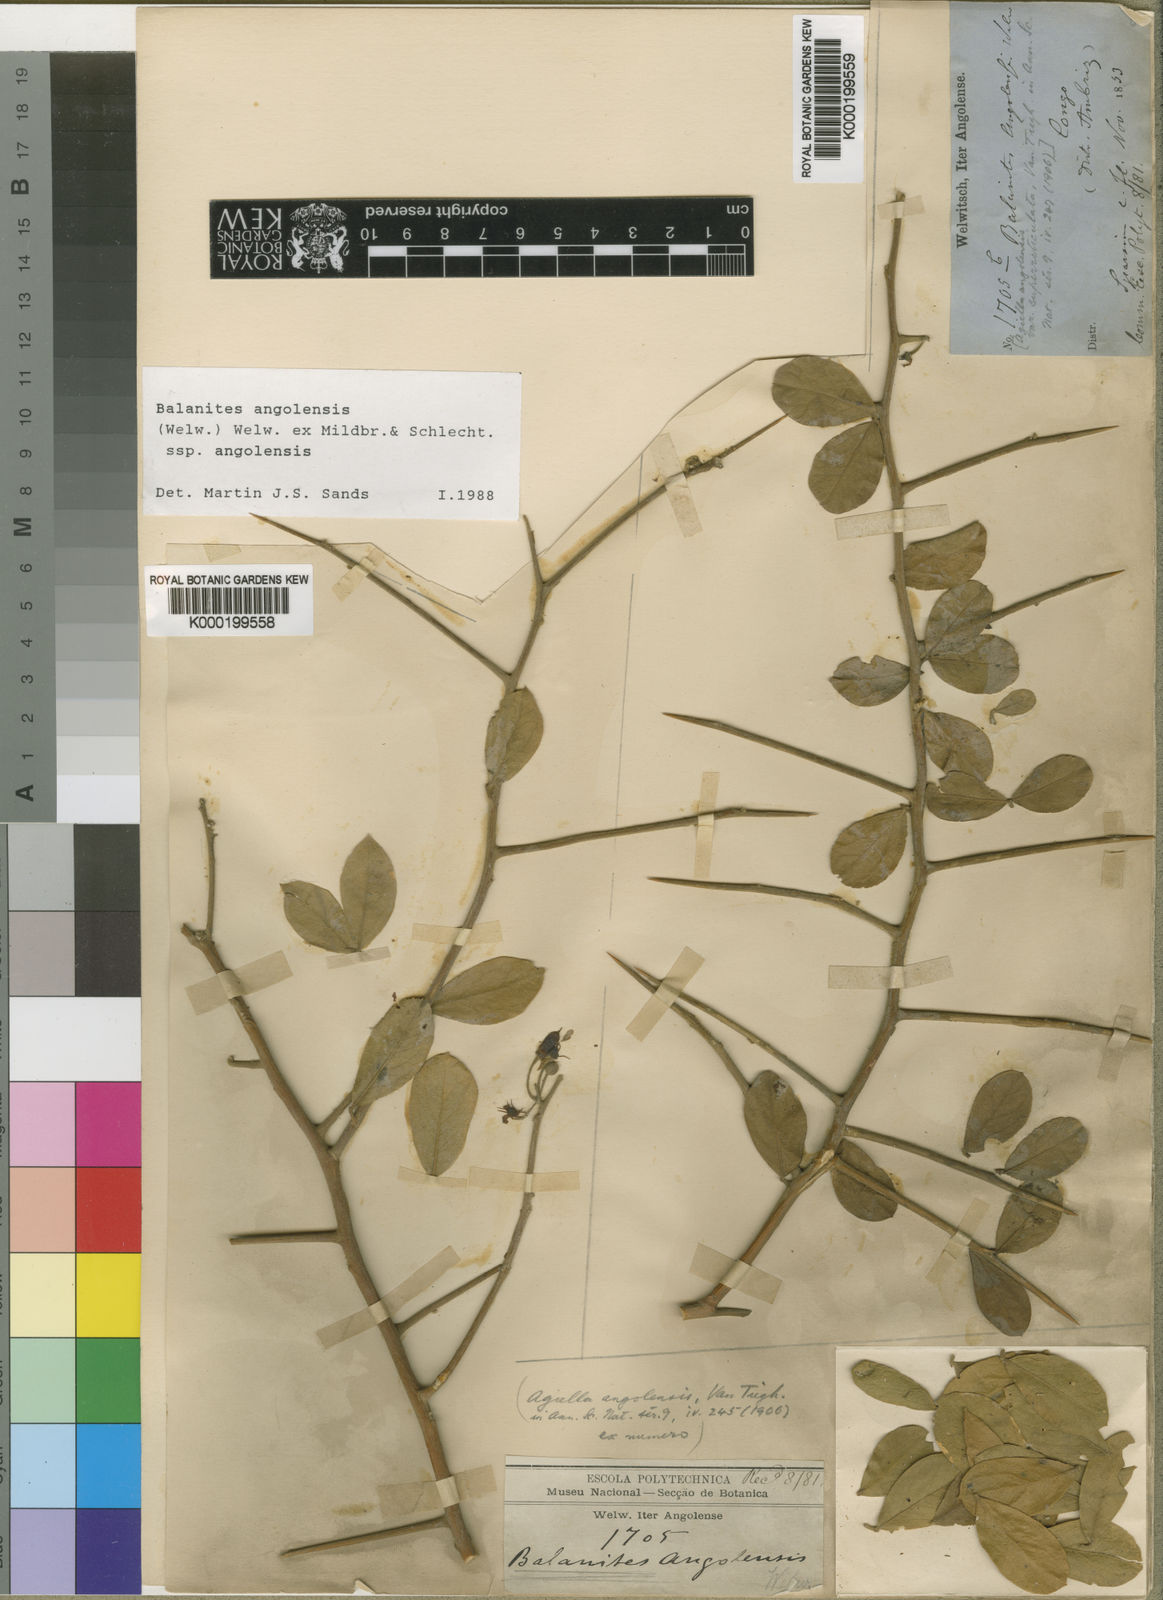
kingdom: Plantae
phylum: Tracheophyta
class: Magnoliopsida
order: Zygophyllales
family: Zygophyllaceae
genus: Balanites
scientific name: Balanites angolensis
